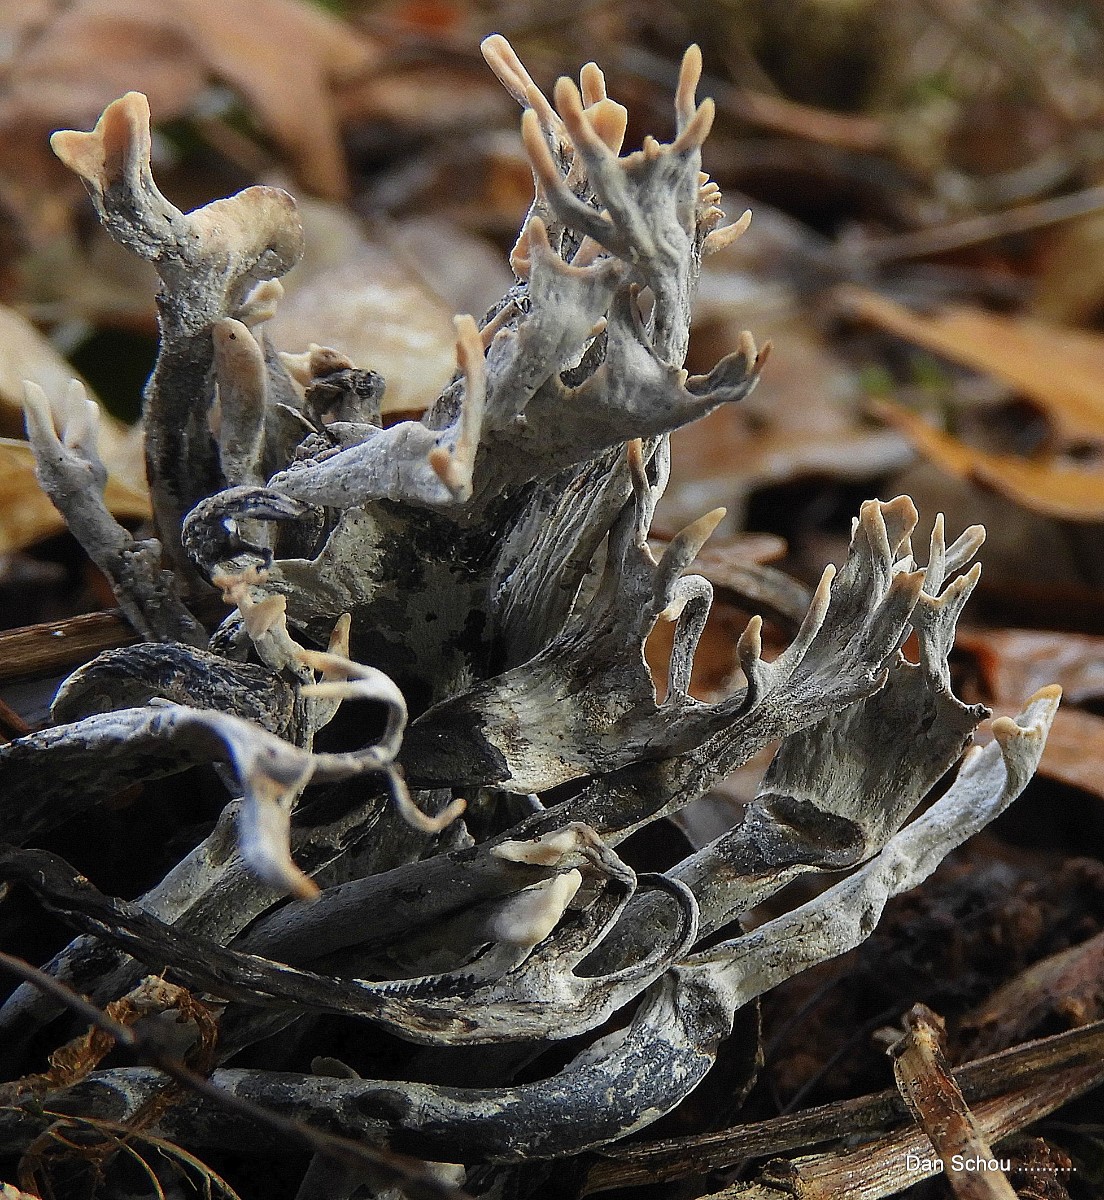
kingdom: Fungi
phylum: Ascomycota
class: Sordariomycetes
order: Xylariales
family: Xylariaceae
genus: Xylaria
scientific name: Xylaria hypoxylon
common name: grenet stødsvamp
